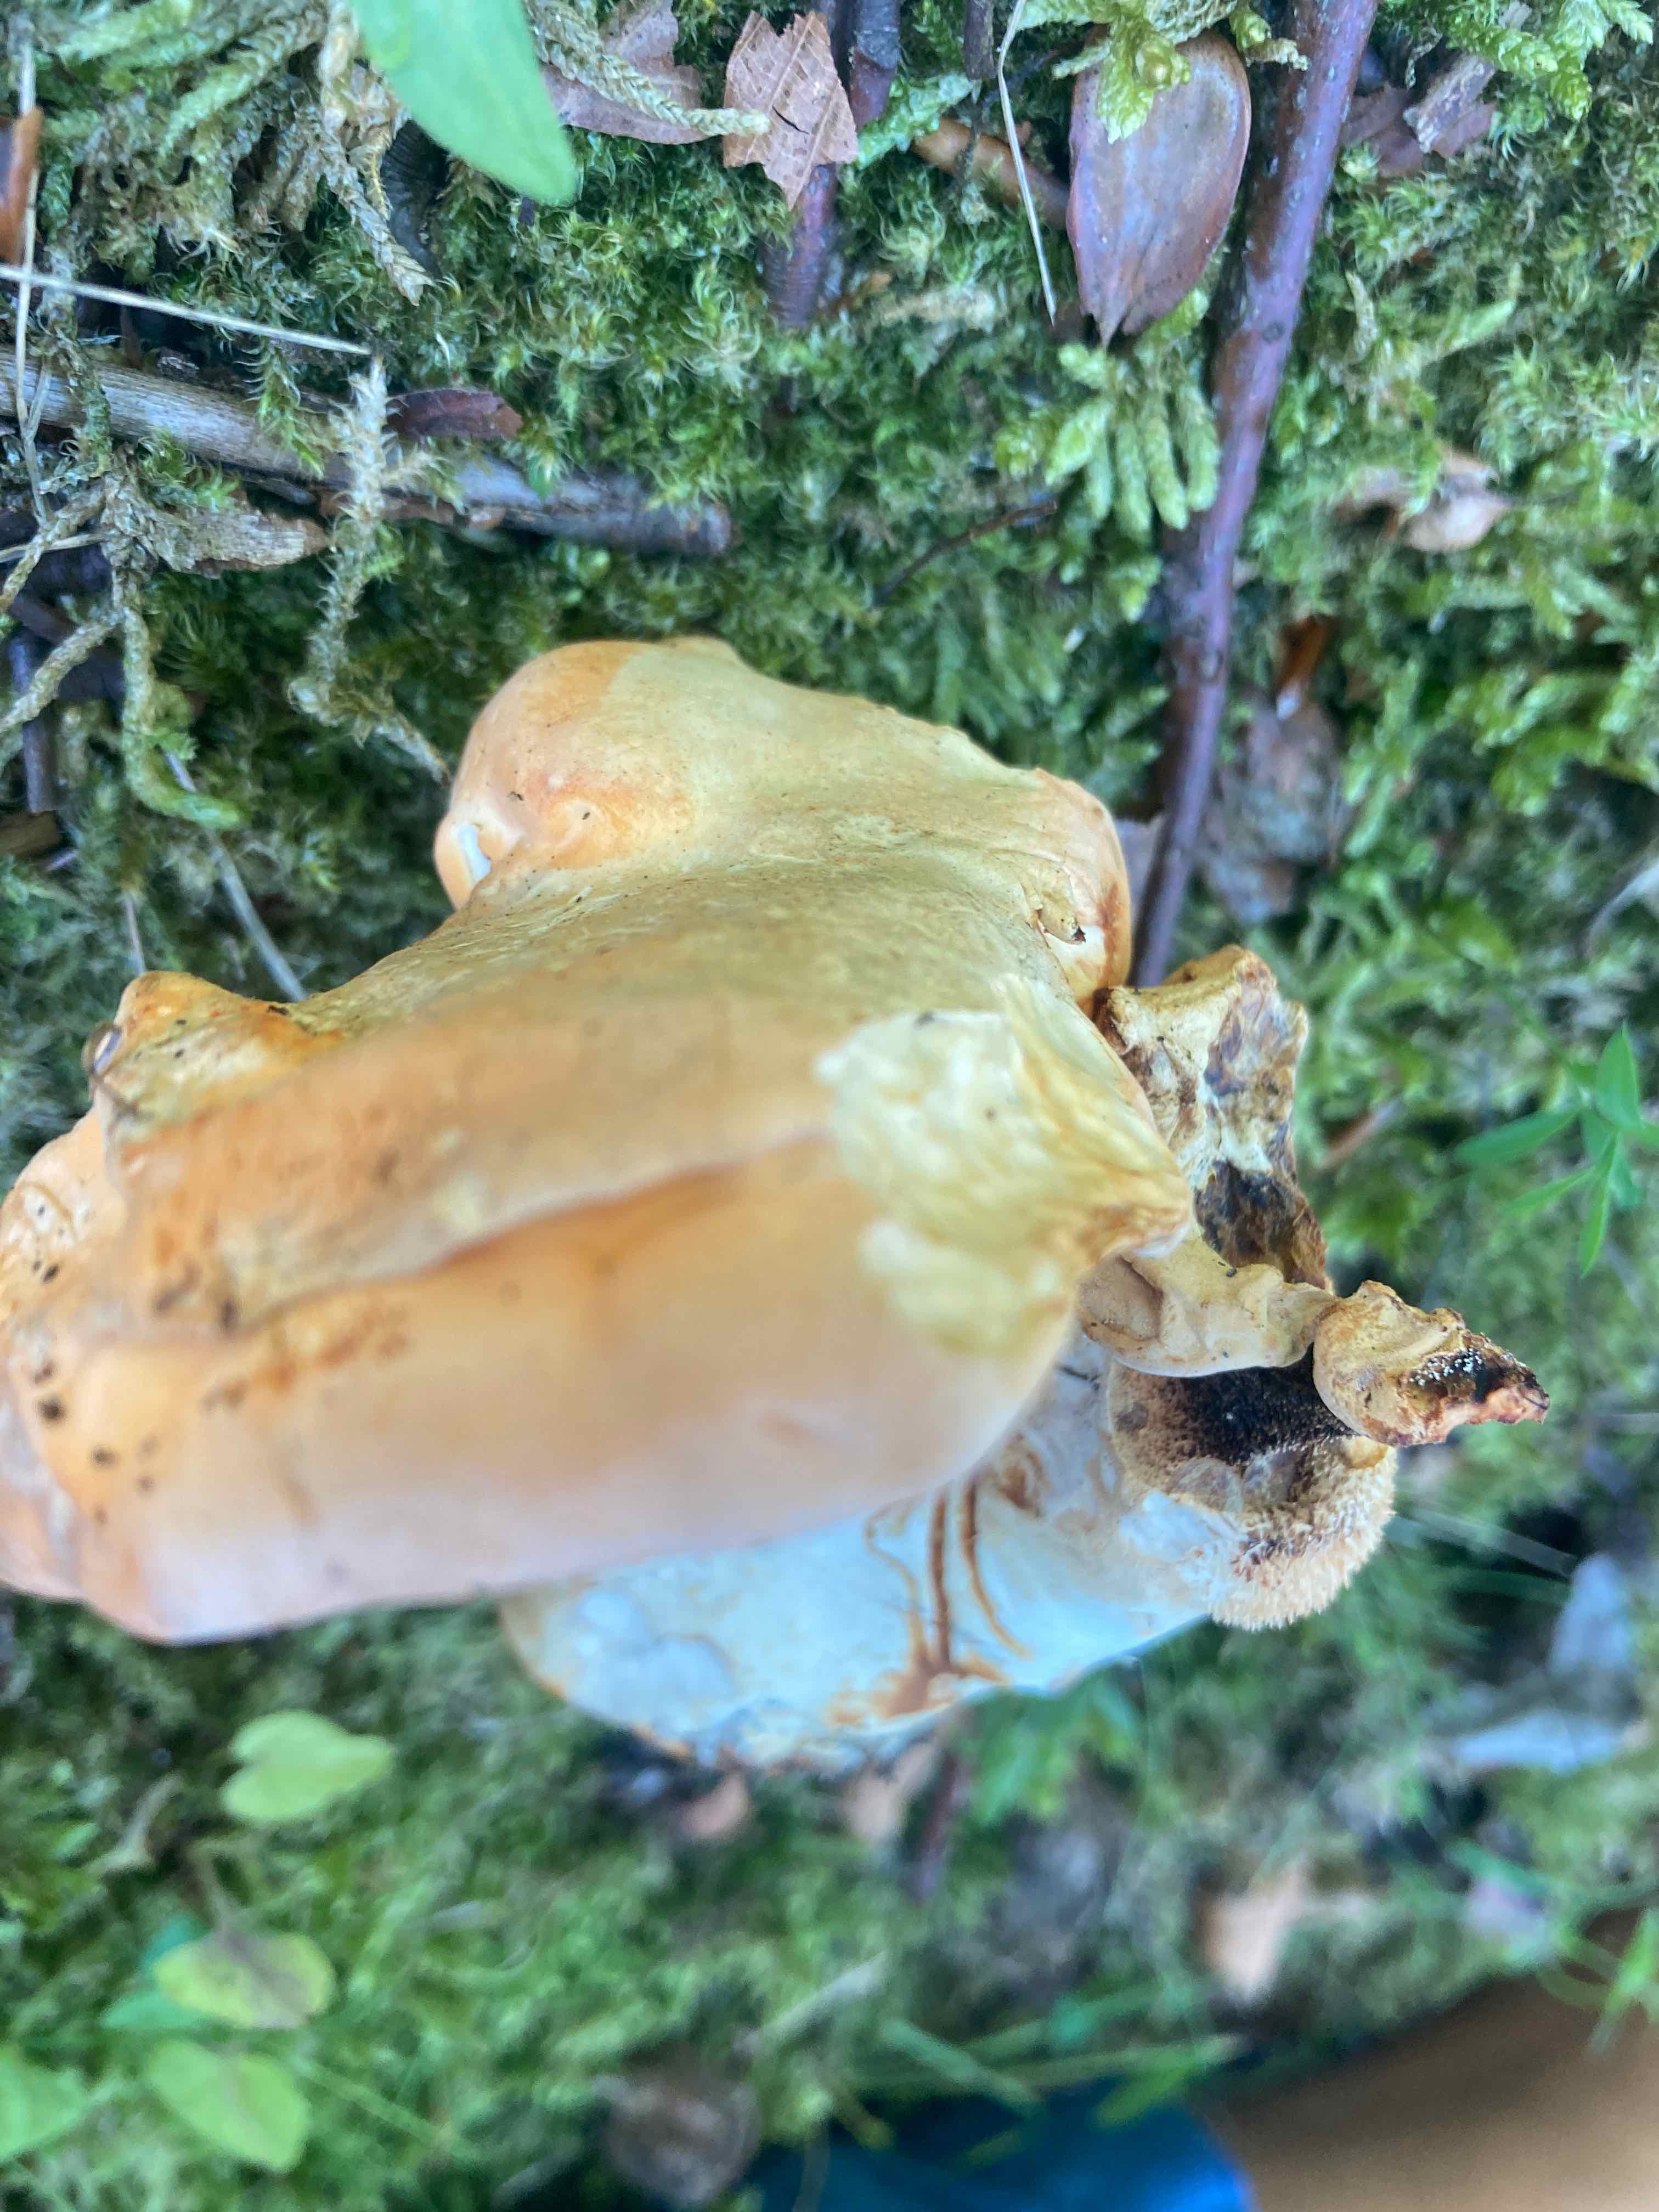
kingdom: Fungi
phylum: Basidiomycota
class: Agaricomycetes
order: Cantharellales
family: Hydnaceae
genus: Hydnum
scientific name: Hydnum
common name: pigsvamp
